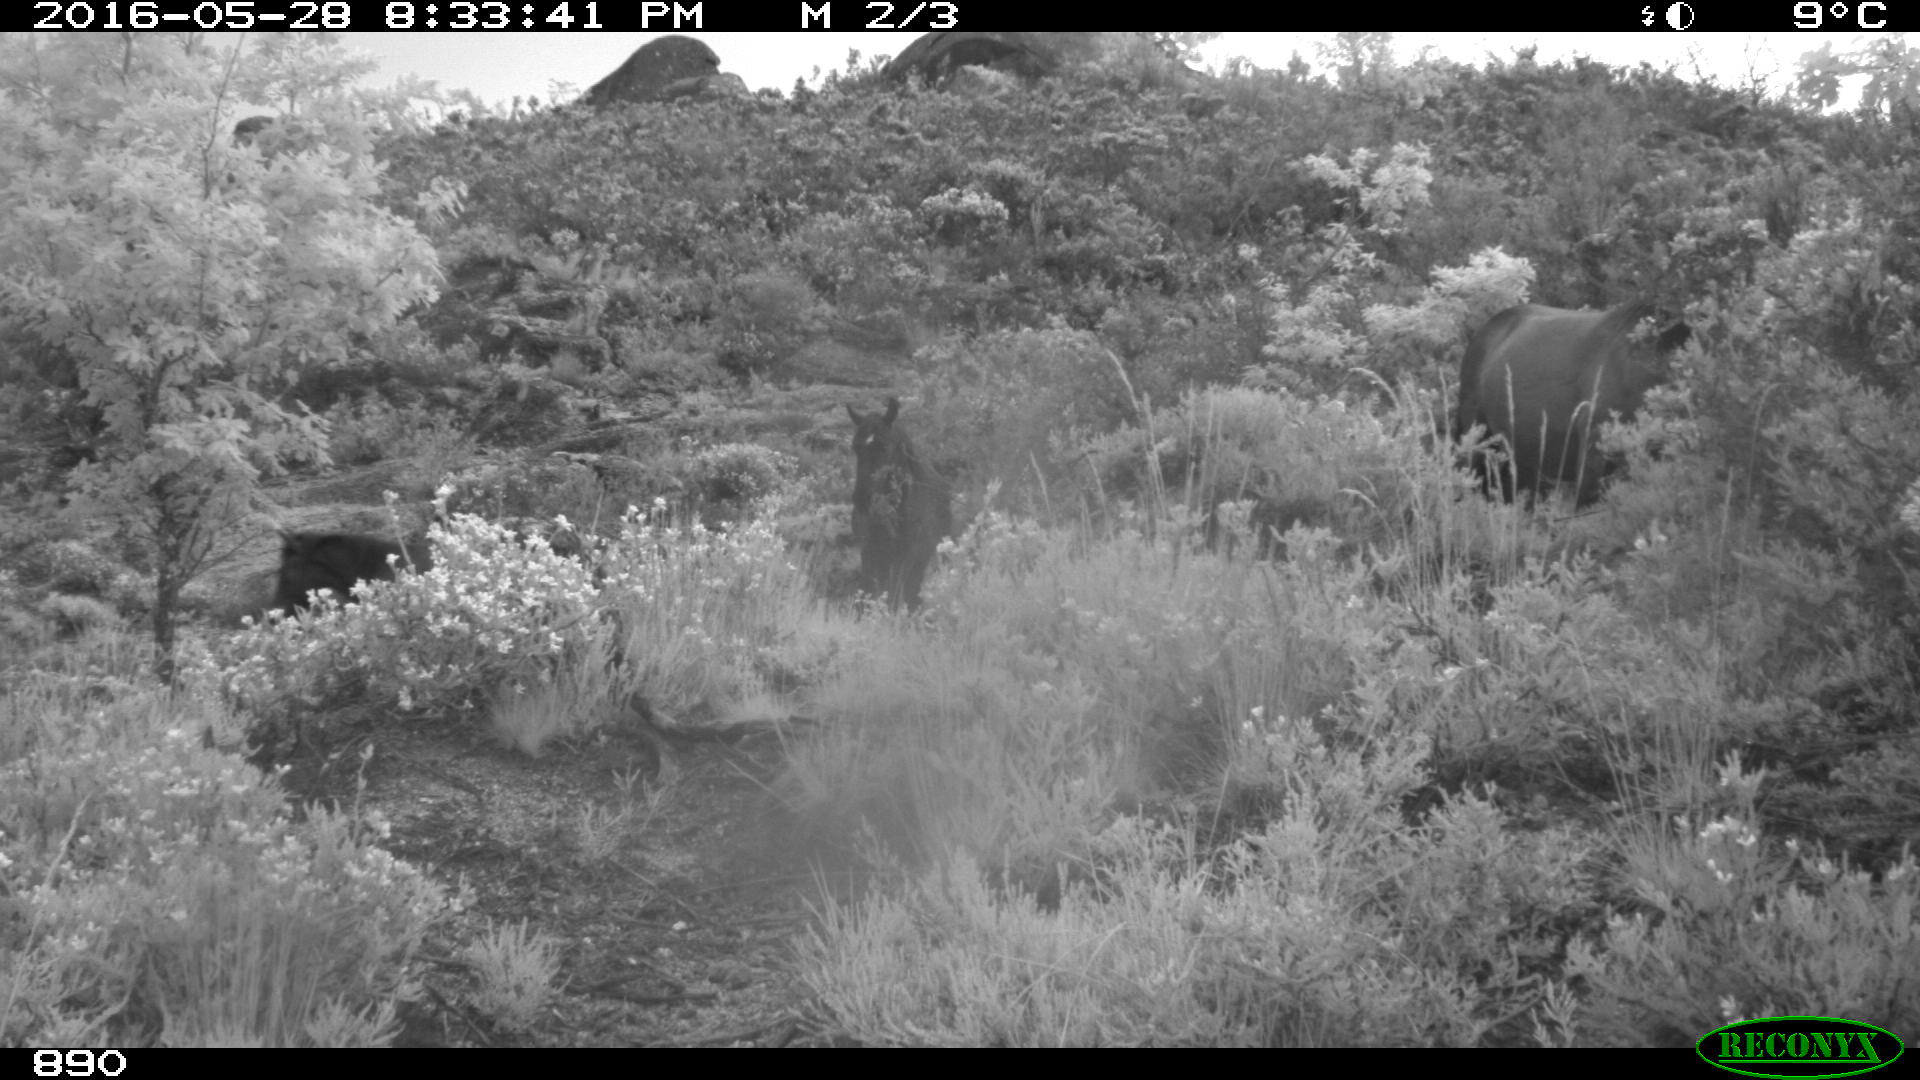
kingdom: Animalia
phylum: Chordata
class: Mammalia
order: Perissodactyla
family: Equidae
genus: Equus
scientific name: Equus caballus
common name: Horse
